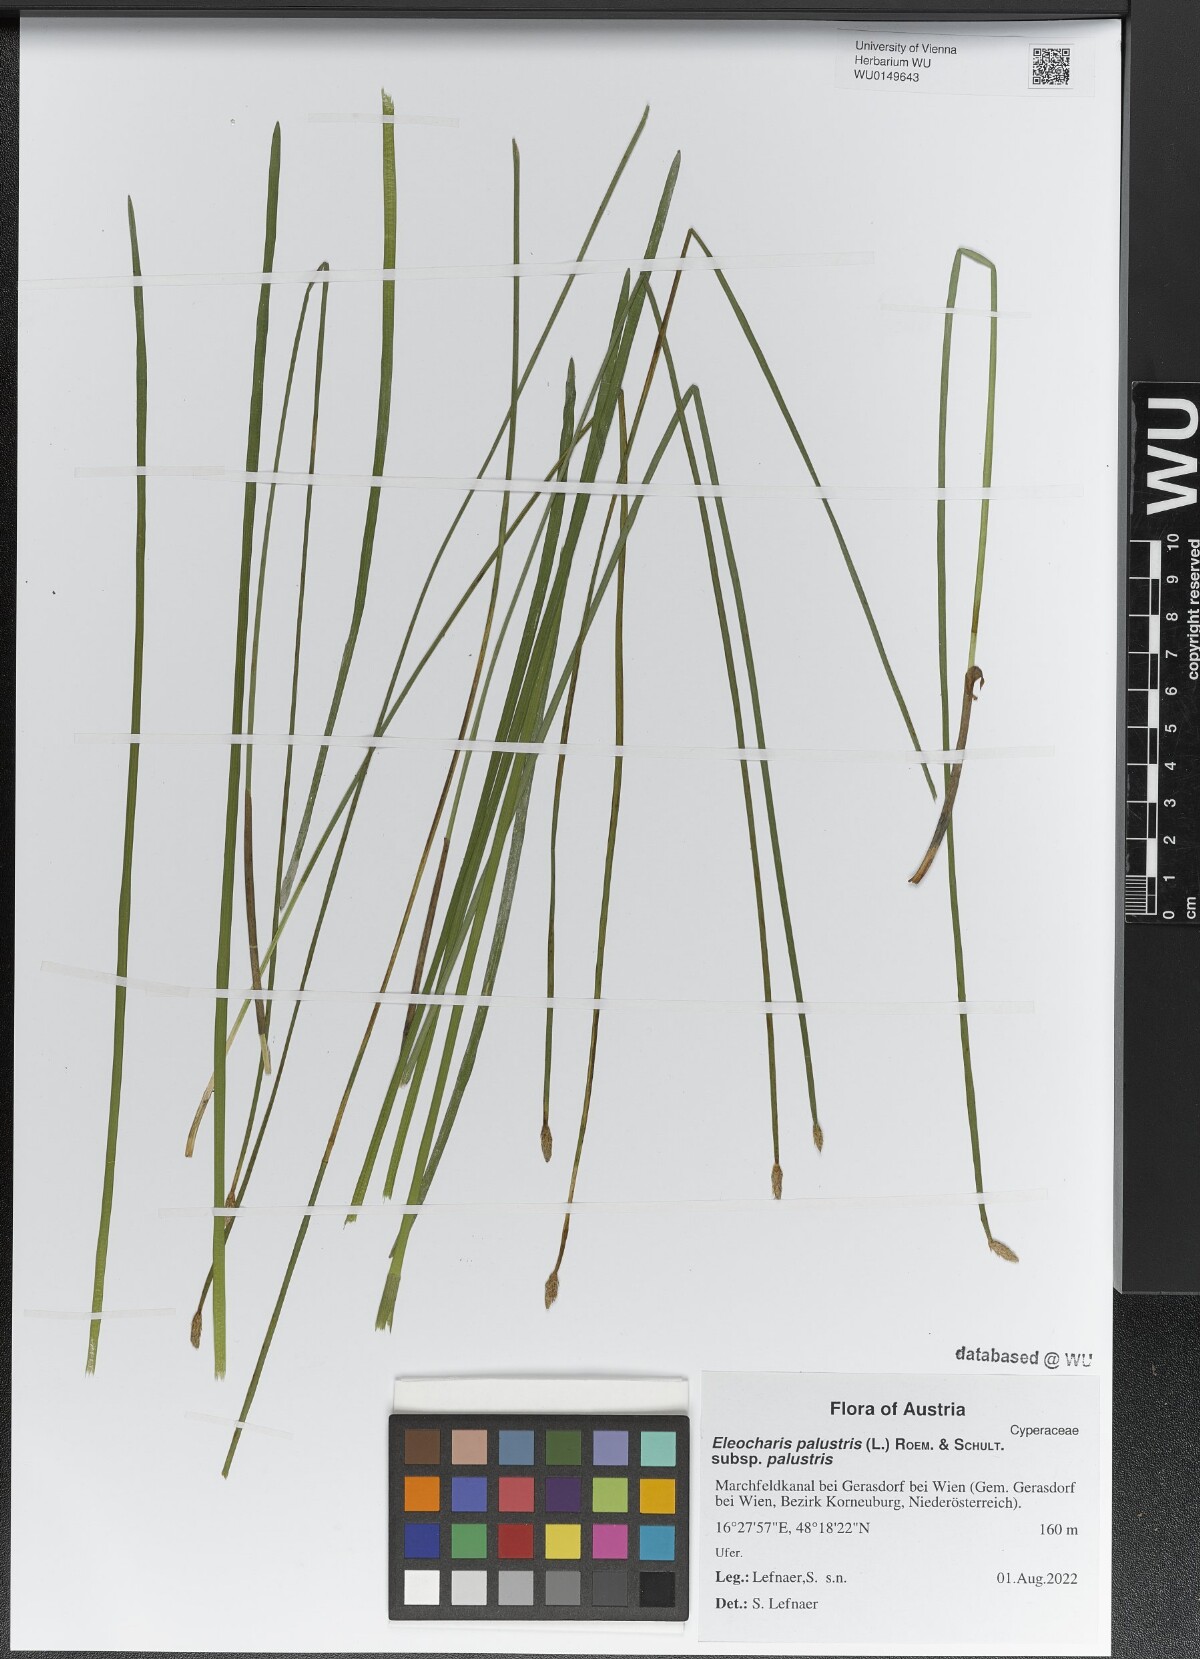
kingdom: Plantae
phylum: Tracheophyta
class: Liliopsida
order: Poales
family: Cyperaceae
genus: Eleocharis
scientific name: Eleocharis palustris
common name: Common spike-rush
